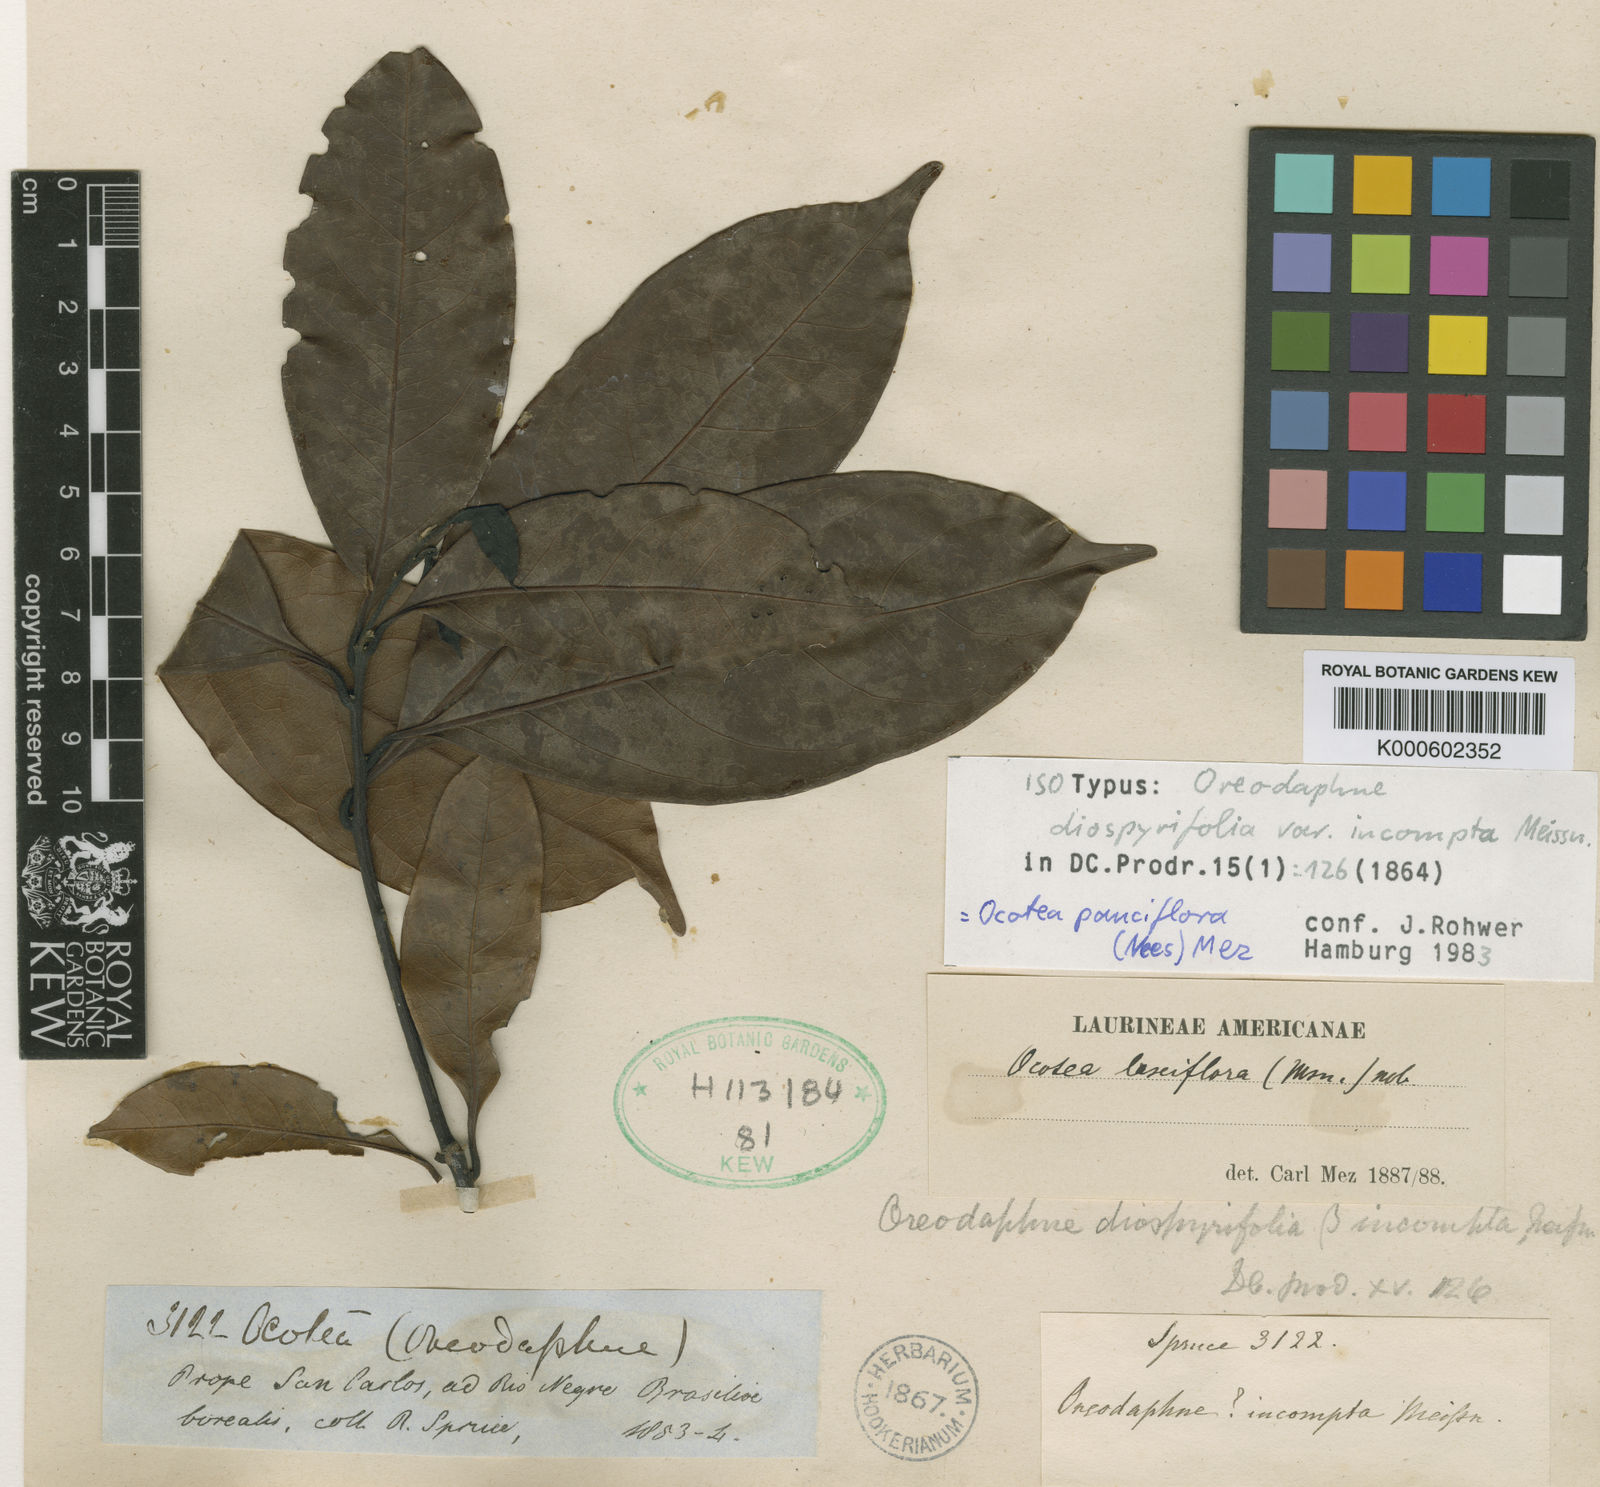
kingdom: Plantae
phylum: Tracheophyta
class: Magnoliopsida
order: Laurales
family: Lauraceae
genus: Ocotea
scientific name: Ocotea pauciflora
